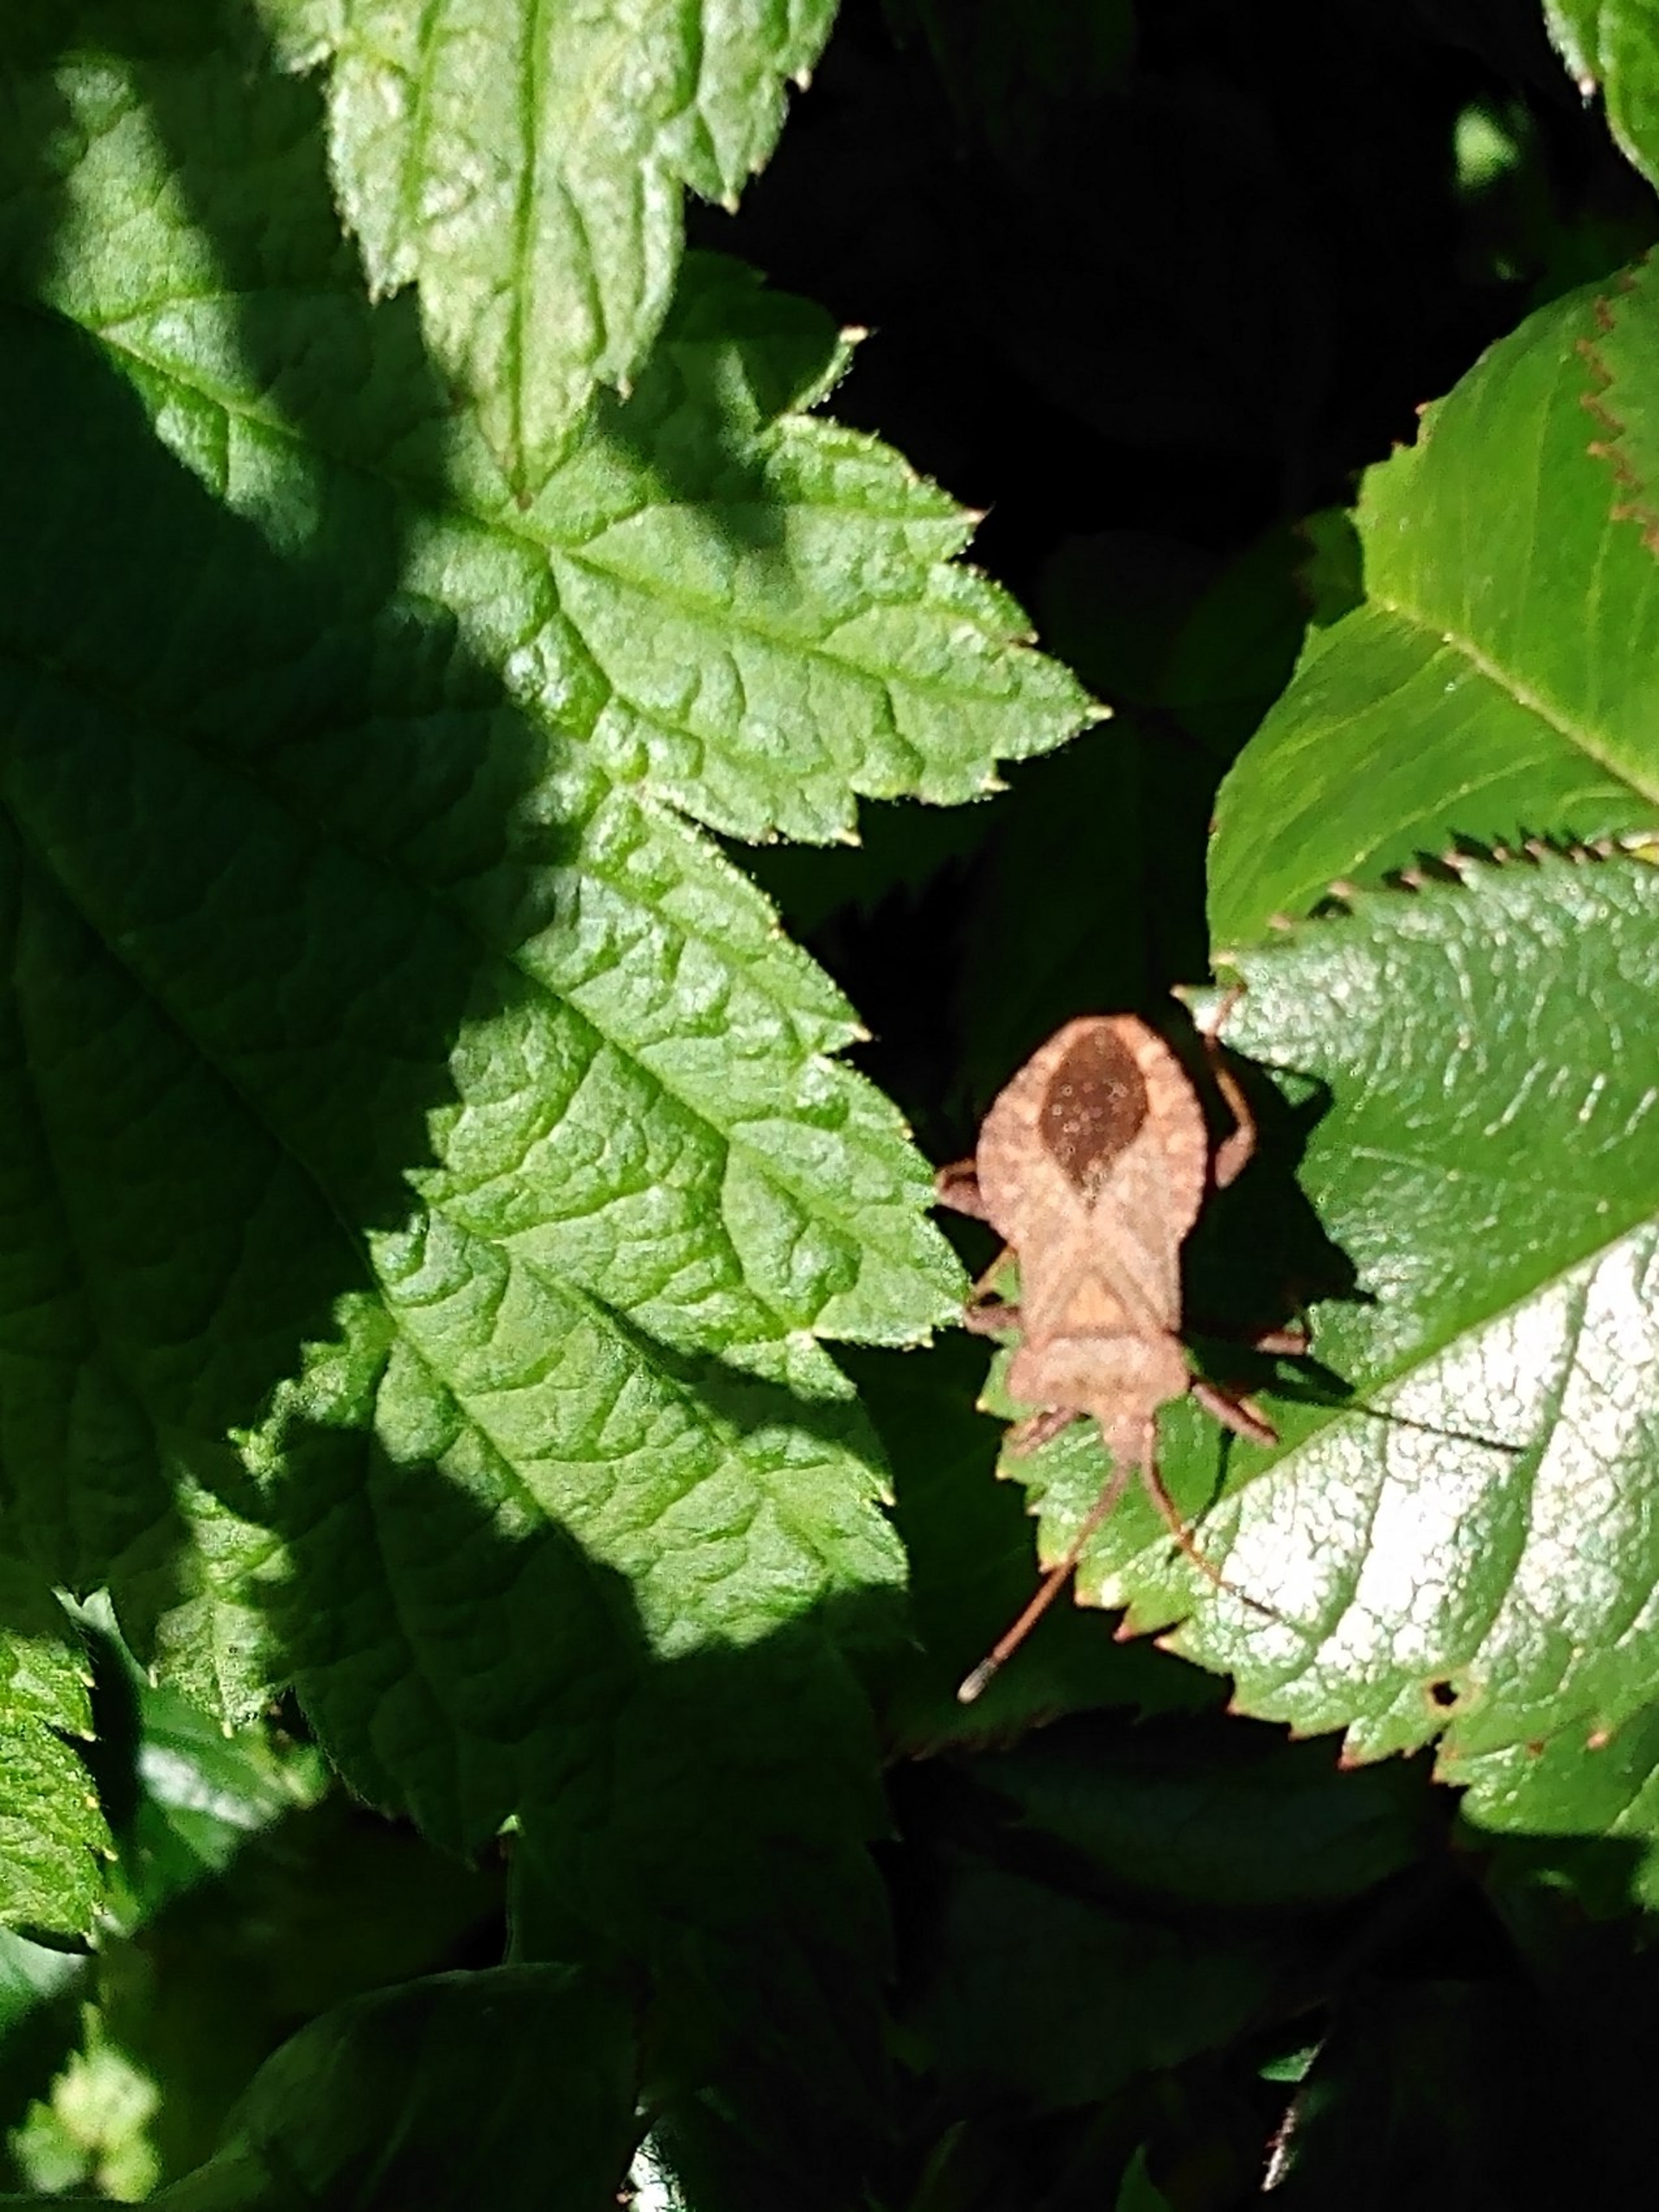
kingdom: Animalia
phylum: Arthropoda
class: Insecta
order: Hemiptera
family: Coreidae
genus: Coreus
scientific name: Coreus marginatus
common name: Skræppetæge
